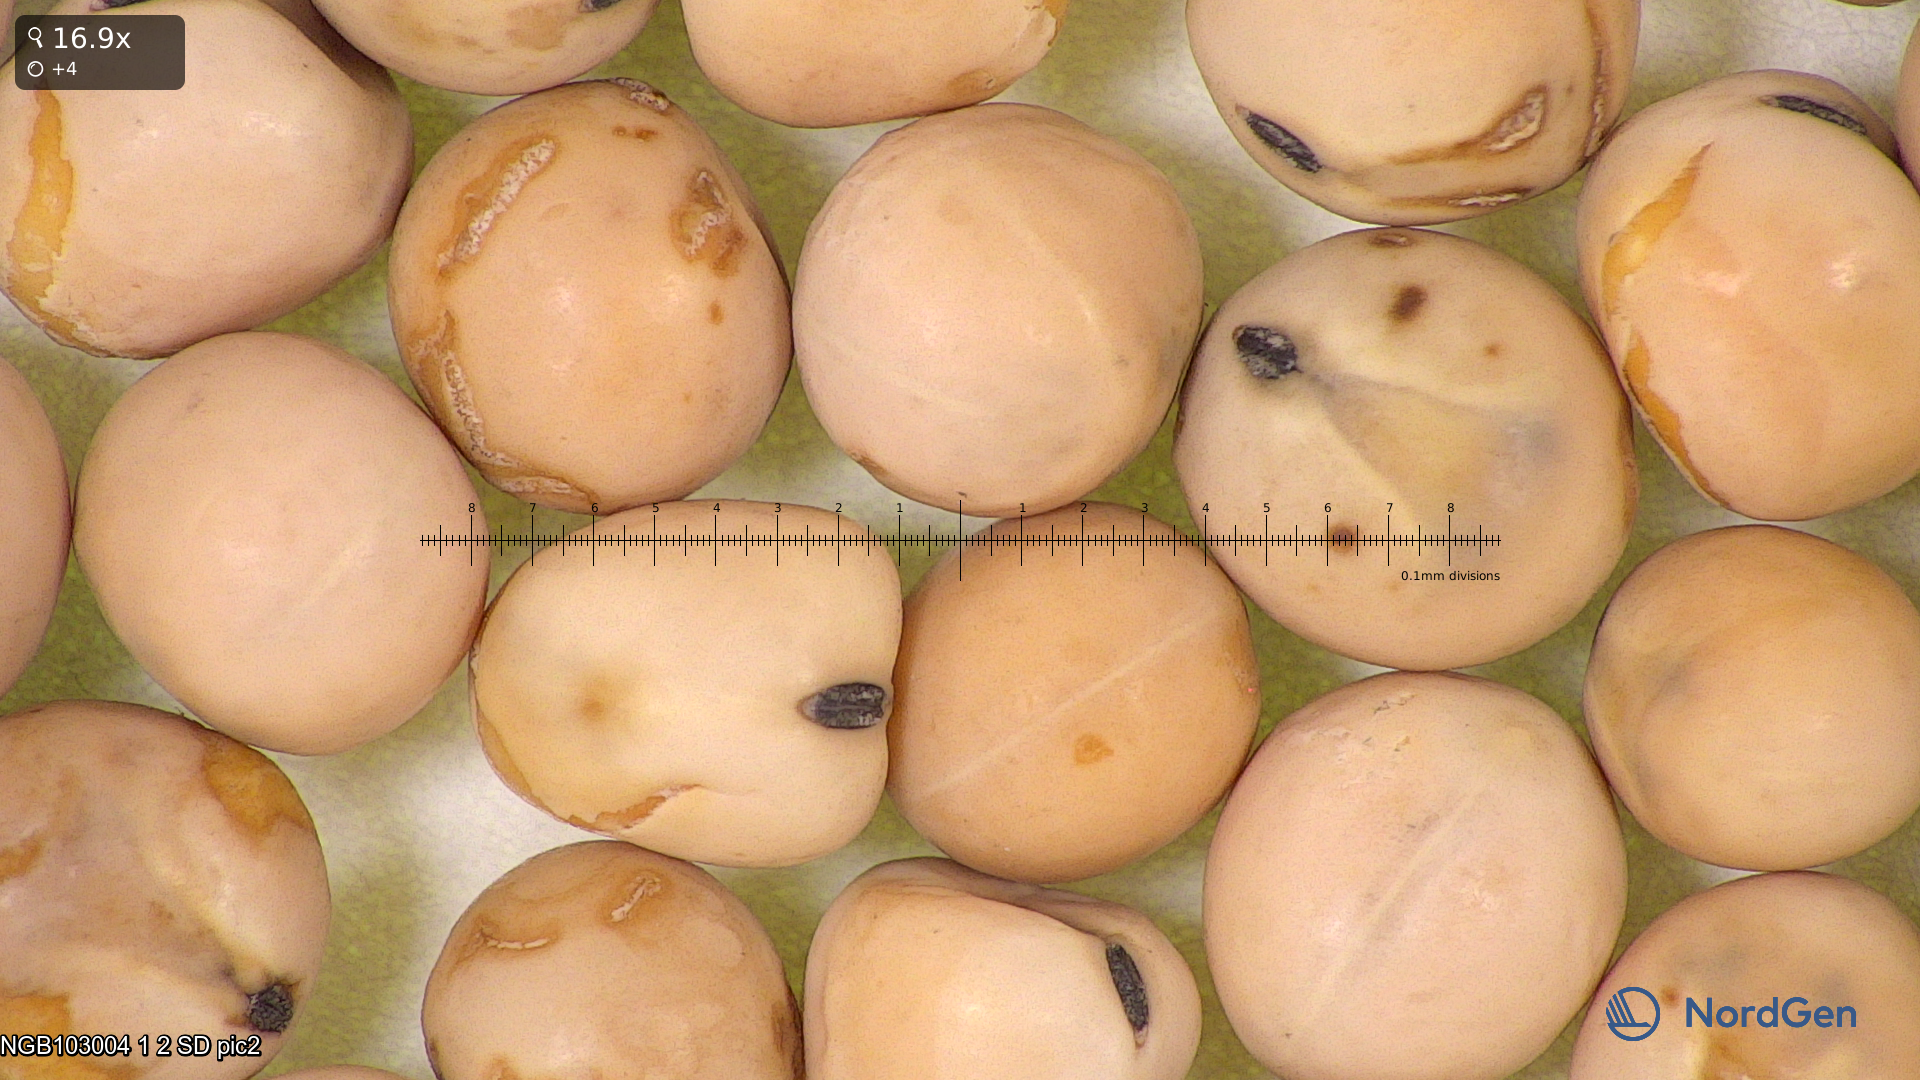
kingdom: Plantae
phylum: Tracheophyta
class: Magnoliopsida
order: Fabales
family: Fabaceae
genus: Lathyrus
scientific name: Lathyrus oleraceus
